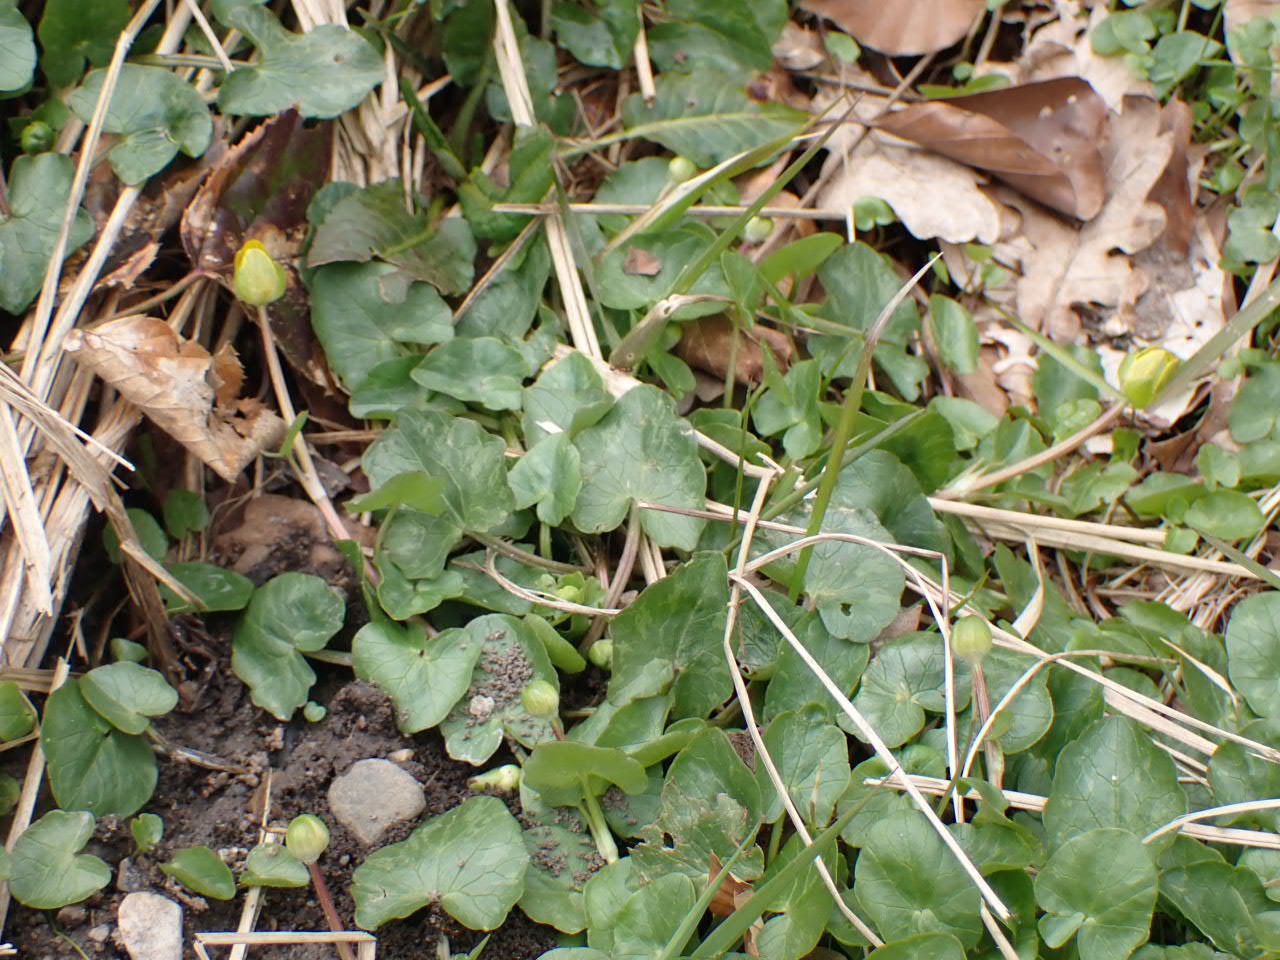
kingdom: Plantae
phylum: Tracheophyta
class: Magnoliopsida
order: Ranunculales
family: Ranunculaceae
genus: Ficaria
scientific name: Ficaria verna
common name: Vorterod
